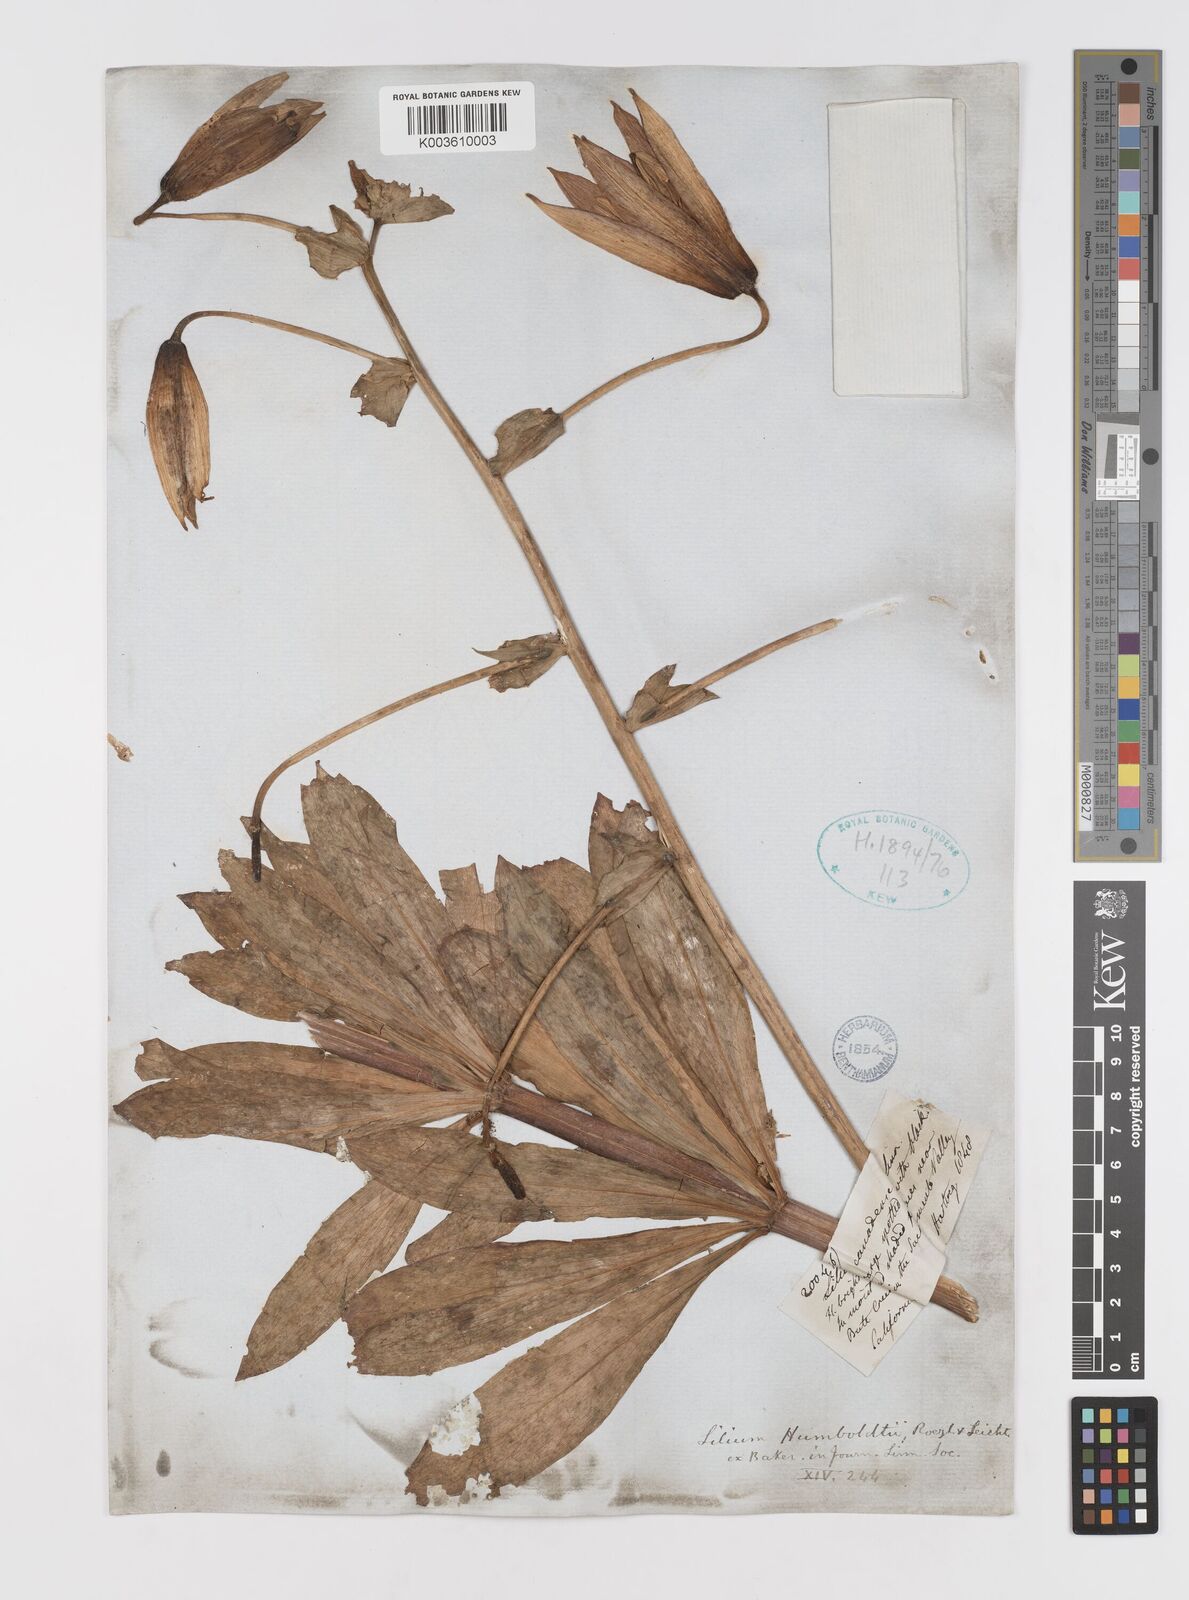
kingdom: Plantae
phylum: Tracheophyta
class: Liliopsida
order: Liliales
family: Liliaceae
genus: Lilium
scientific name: Lilium humboldtii
